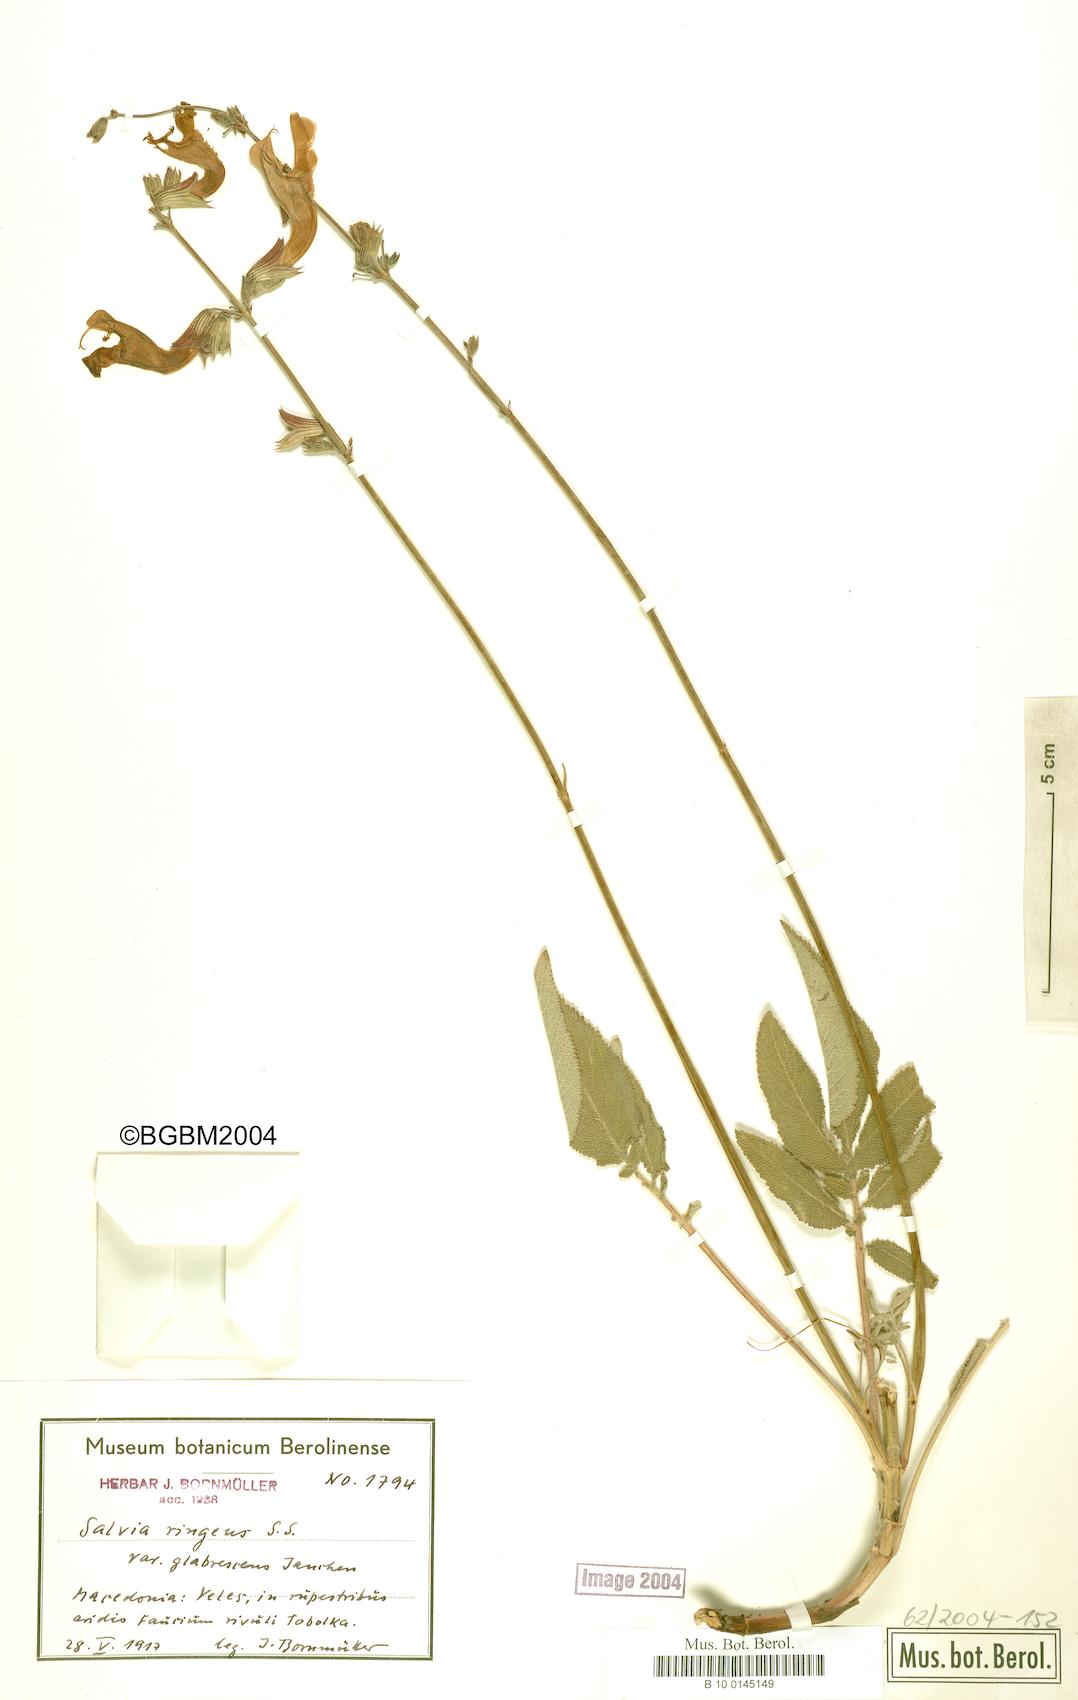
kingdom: Plantae
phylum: Tracheophyta
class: Magnoliopsida
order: Lamiales
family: Lamiaceae
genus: Salvia
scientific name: Salvia ringens
